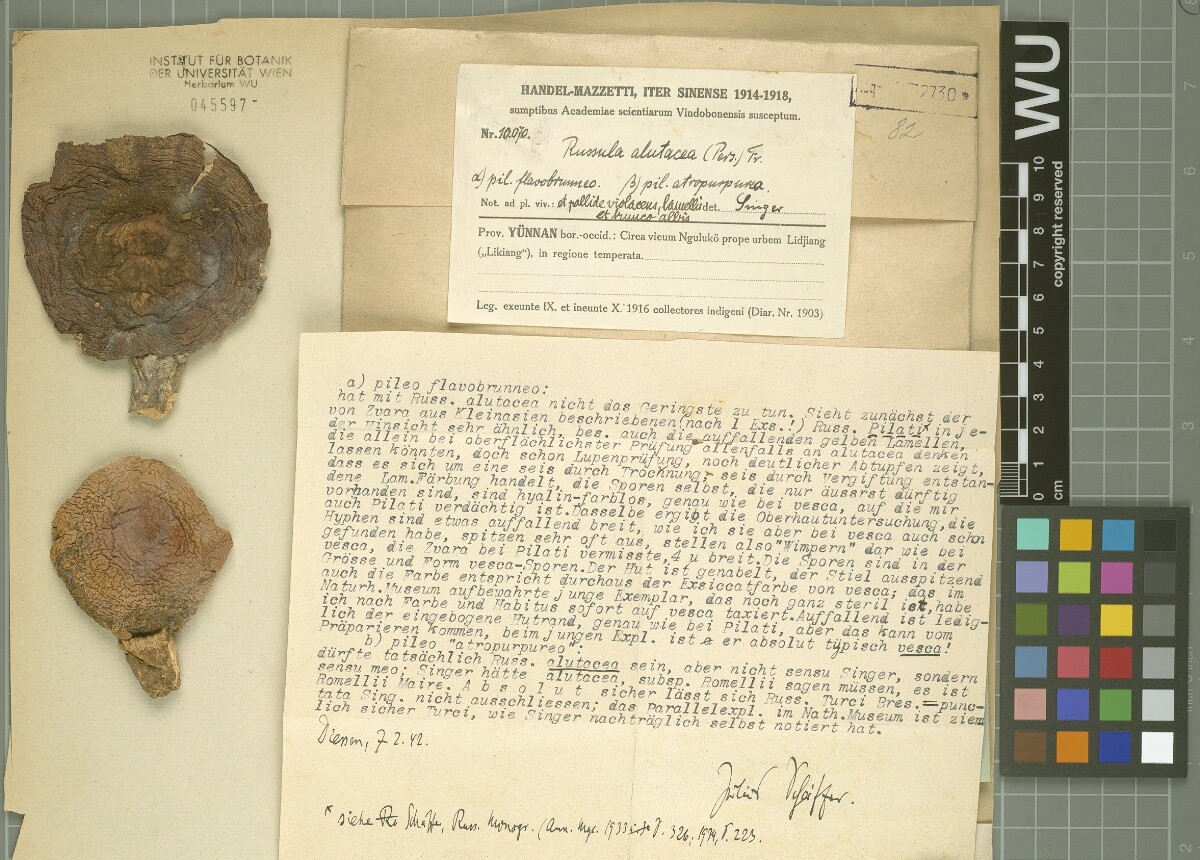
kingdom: Fungi
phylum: Basidiomycota
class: Agaricomycetes
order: Russulales
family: Russulaceae
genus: Russula
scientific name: Russula alutacea
